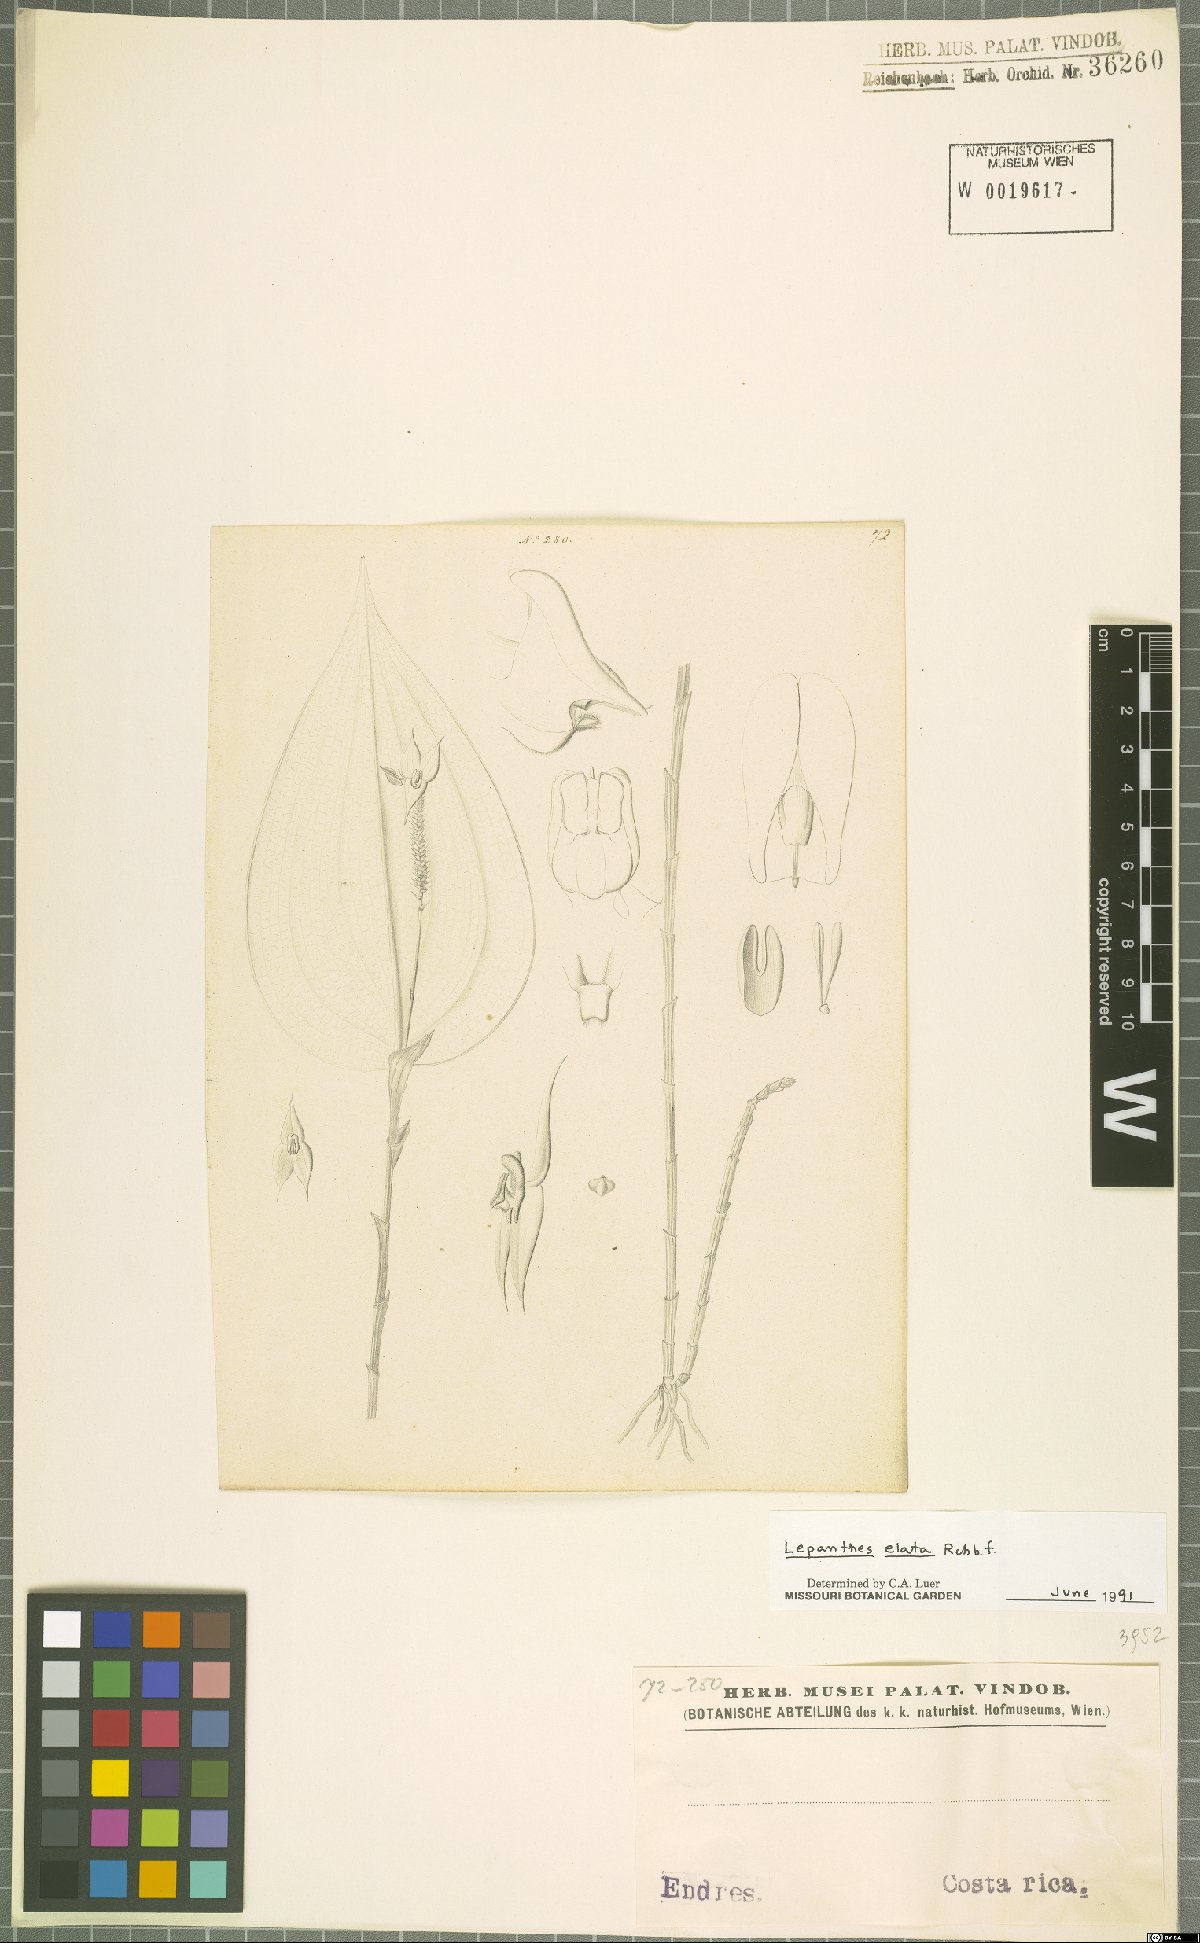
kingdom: Plantae
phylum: Tracheophyta
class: Liliopsida
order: Asparagales
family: Orchidaceae
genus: Lepanthes
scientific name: Lepanthes elata
